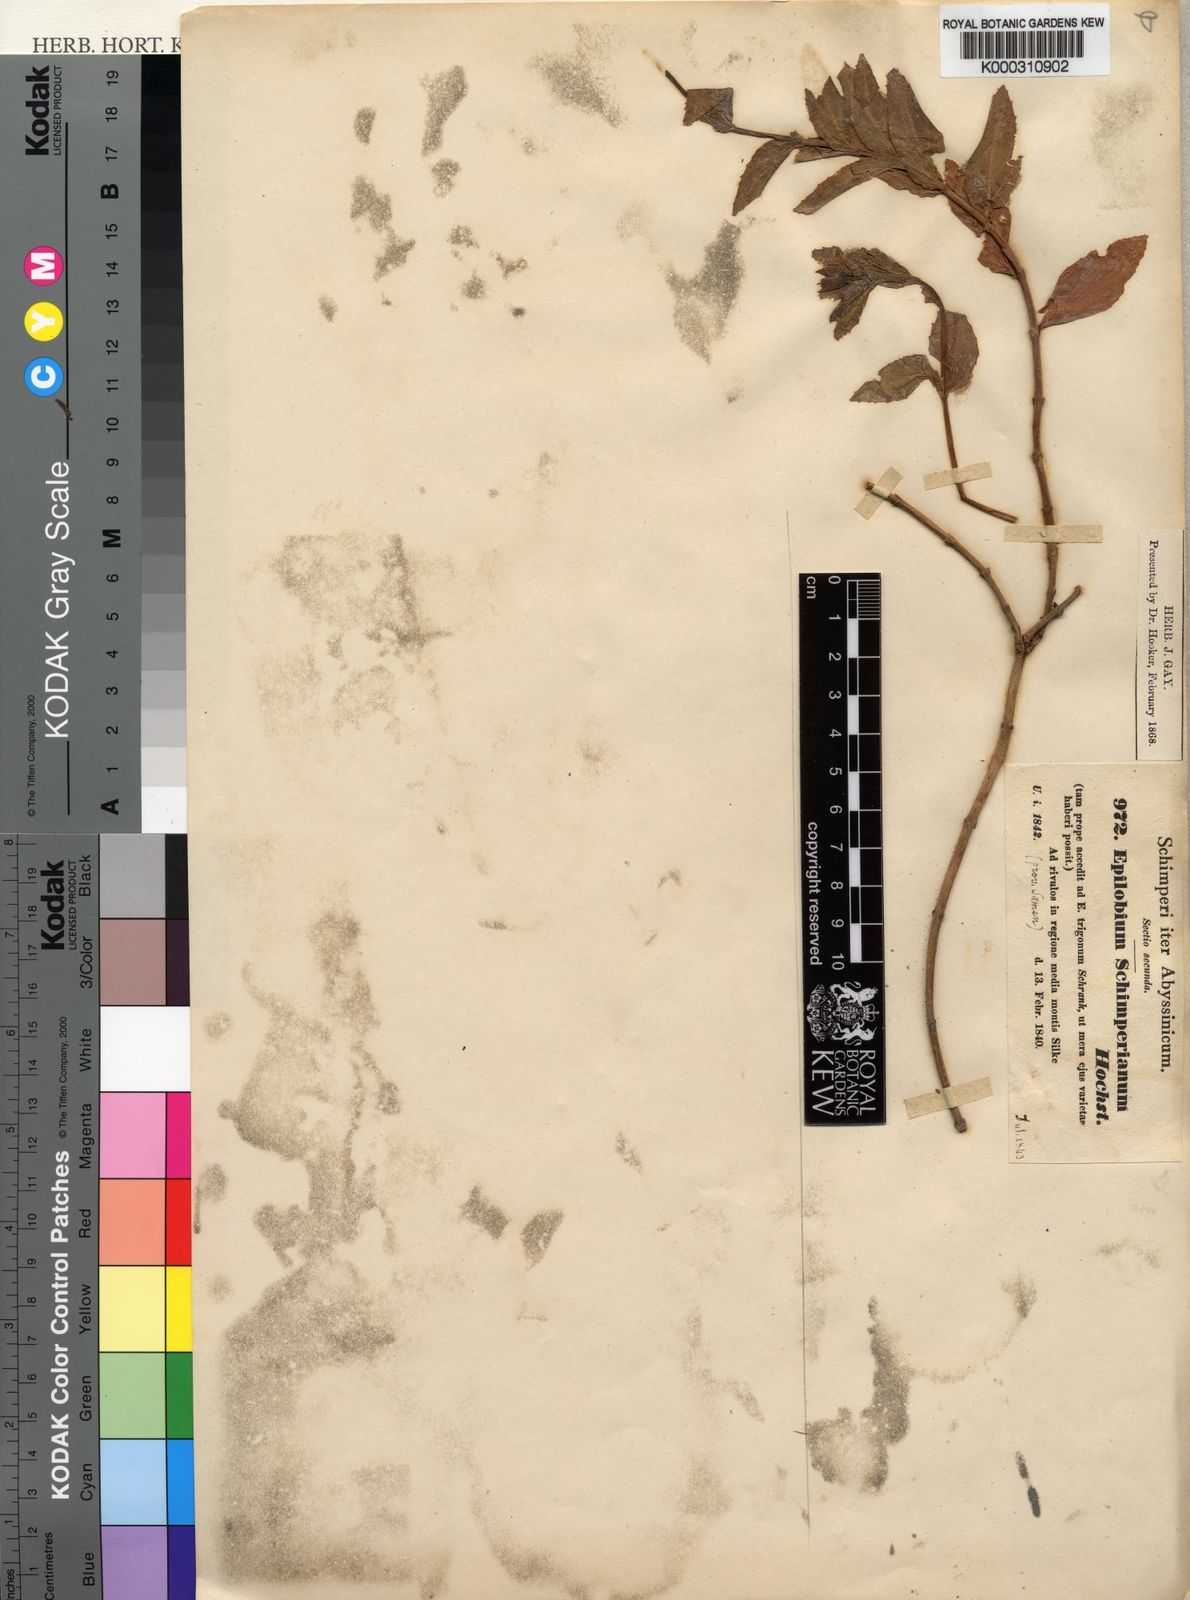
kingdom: Plantae
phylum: Tracheophyta
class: Magnoliopsida
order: Myrtales
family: Onagraceae
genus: Epilobium
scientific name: Epilobium stereophyllum
